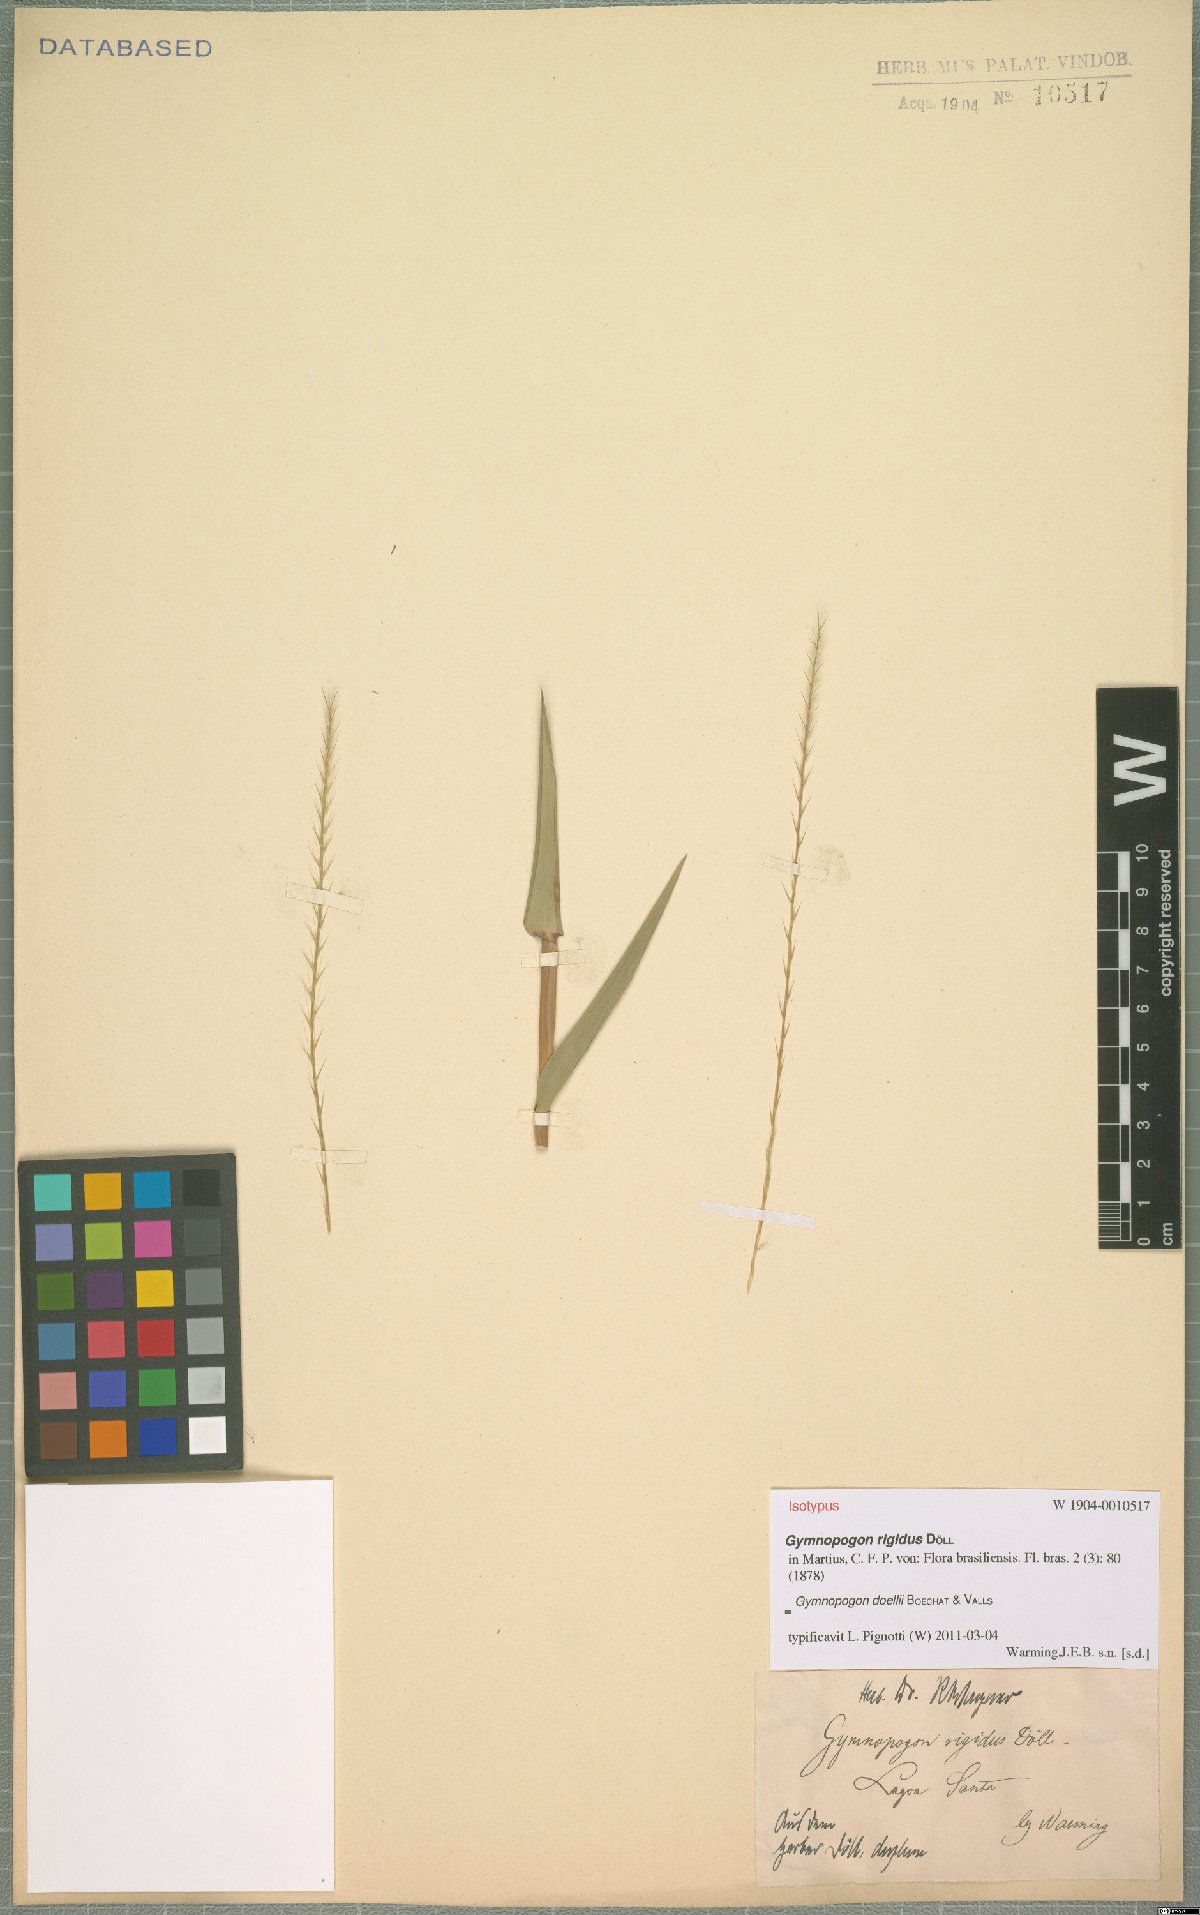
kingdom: Plantae
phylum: Tracheophyta
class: Liliopsida
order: Poales
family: Poaceae
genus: Gymnopogon
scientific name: Gymnopogon doellii
